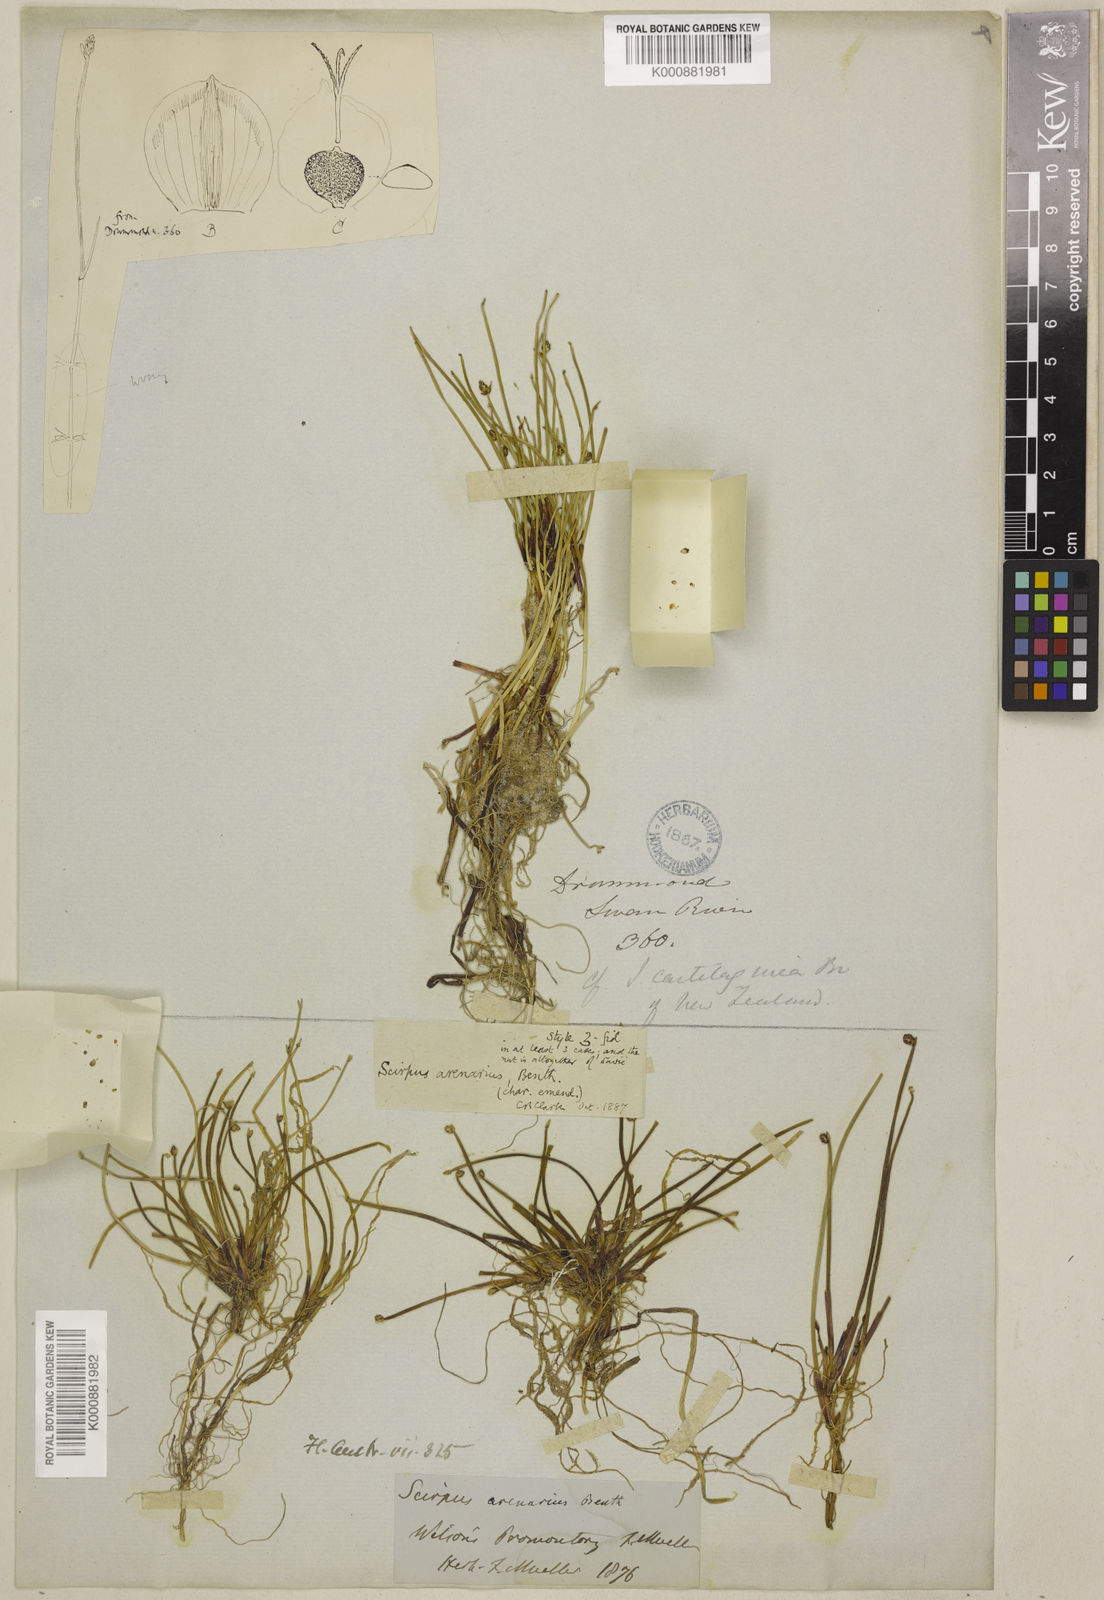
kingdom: Plantae
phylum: Tracheophyta
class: Liliopsida
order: Poales
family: Cyperaceae
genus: Isolepis
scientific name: Isolepis cernua
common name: Slender club-rush
